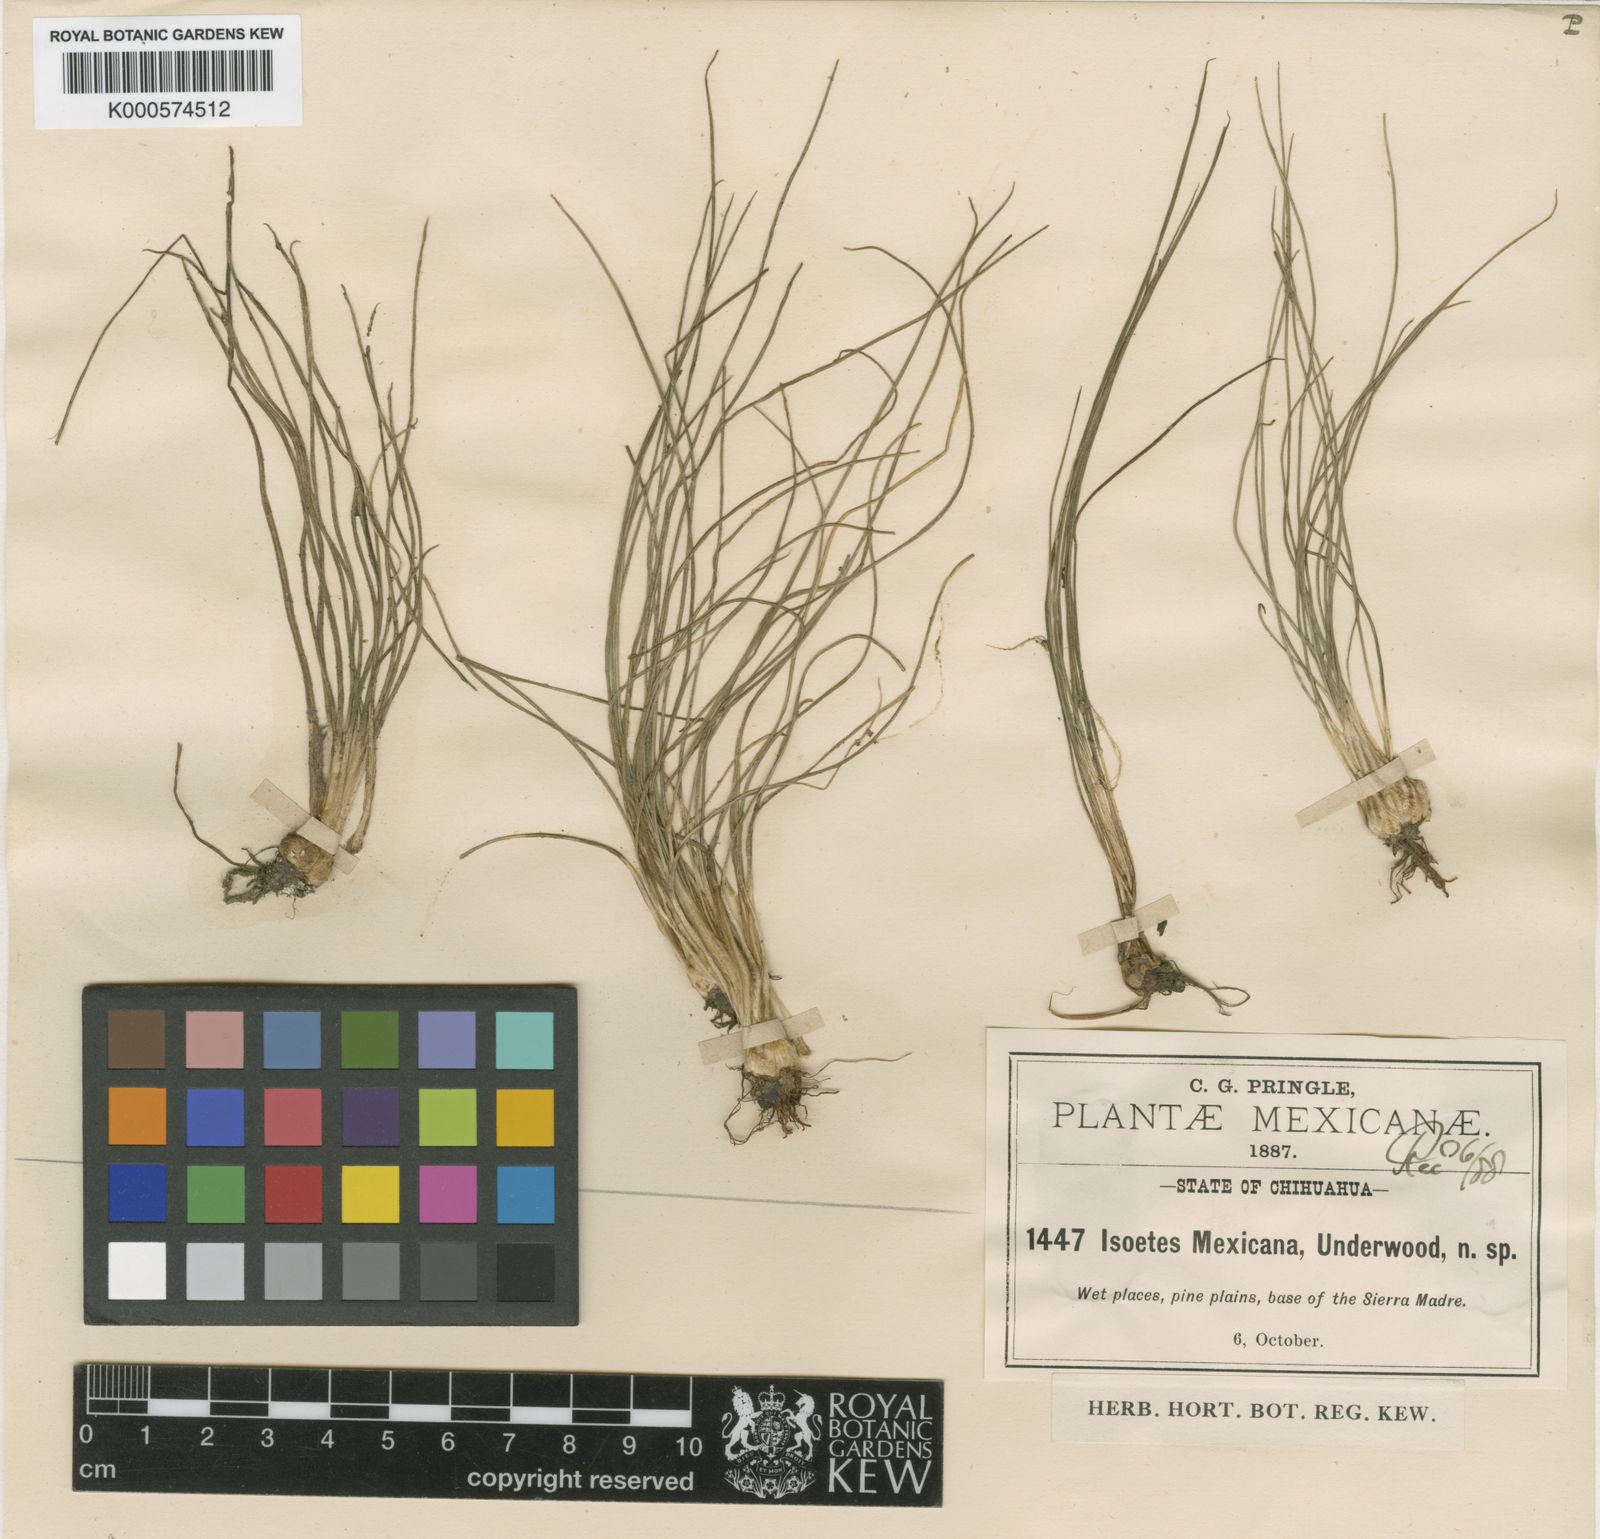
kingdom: Plantae
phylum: Tracheophyta
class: Lycopodiopsida
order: Isoetales
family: Isoetaceae
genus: Isoetes
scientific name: Isoetes mexicana
